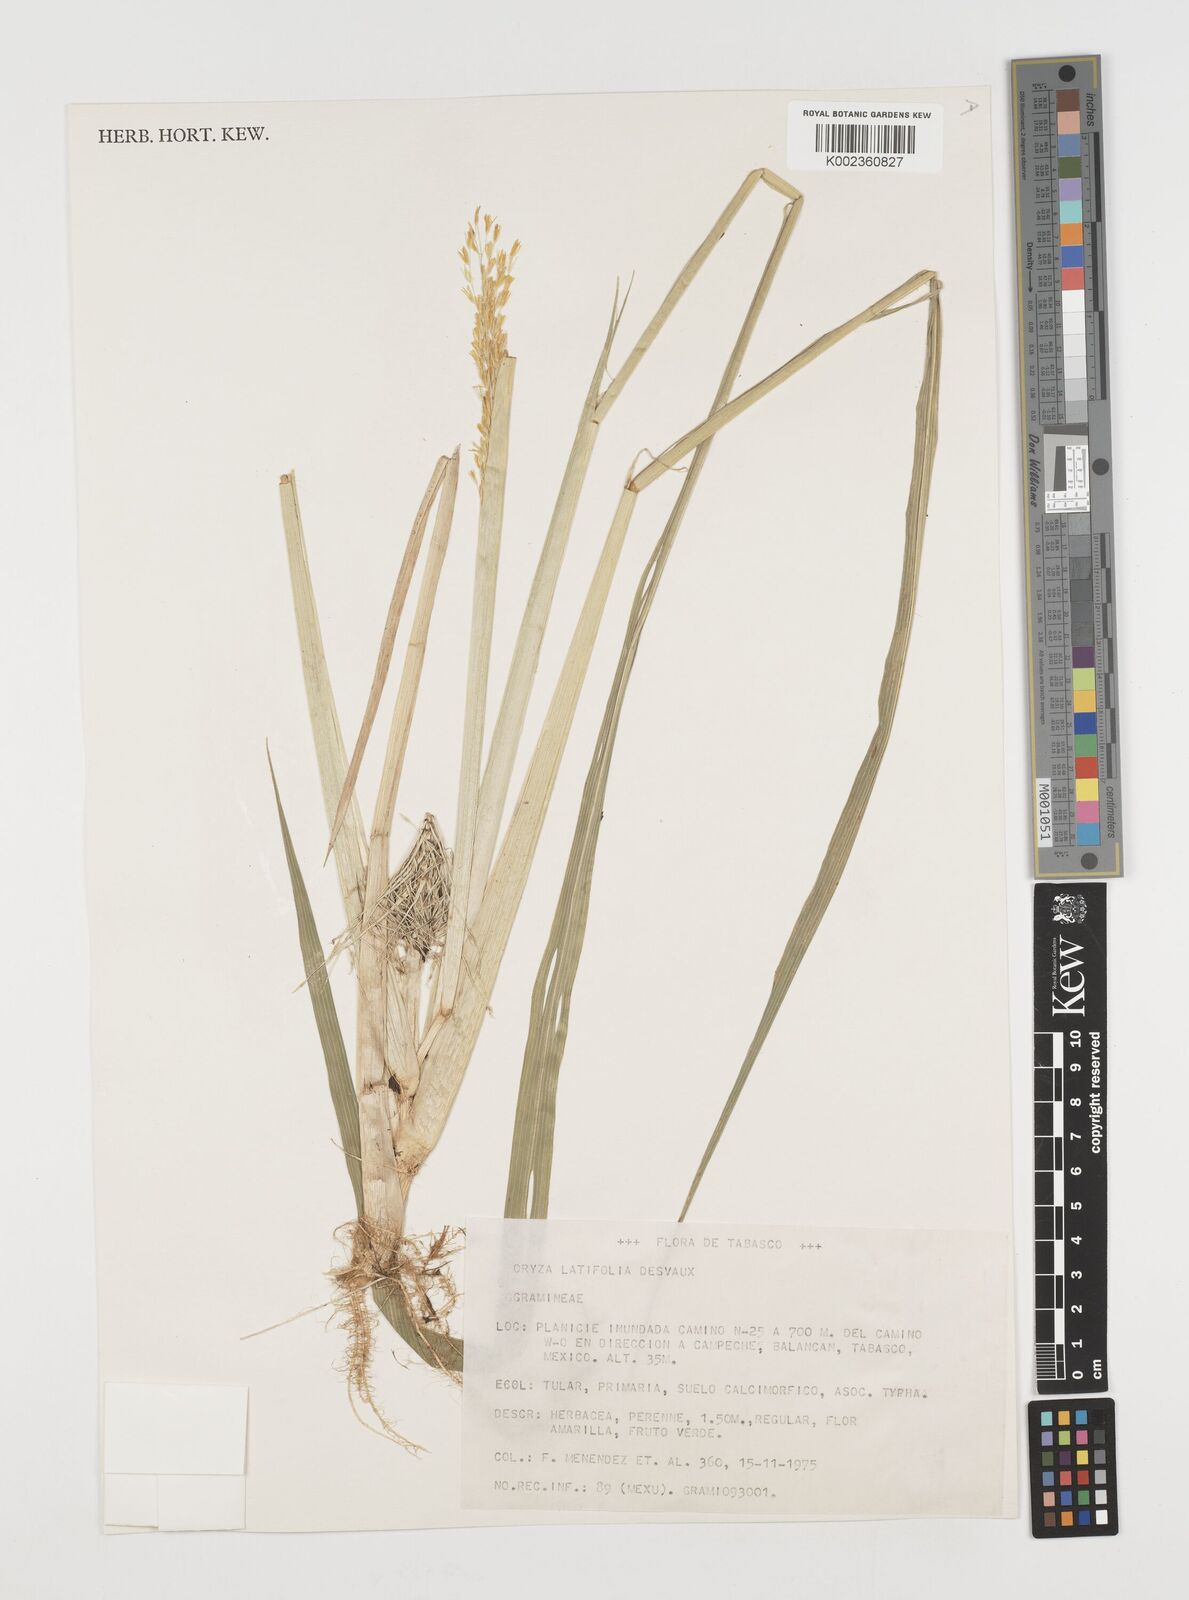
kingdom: Plantae
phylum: Tracheophyta
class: Liliopsida
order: Poales
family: Poaceae
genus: Luziola
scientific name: Luziola subintegra
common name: Large watergrass
